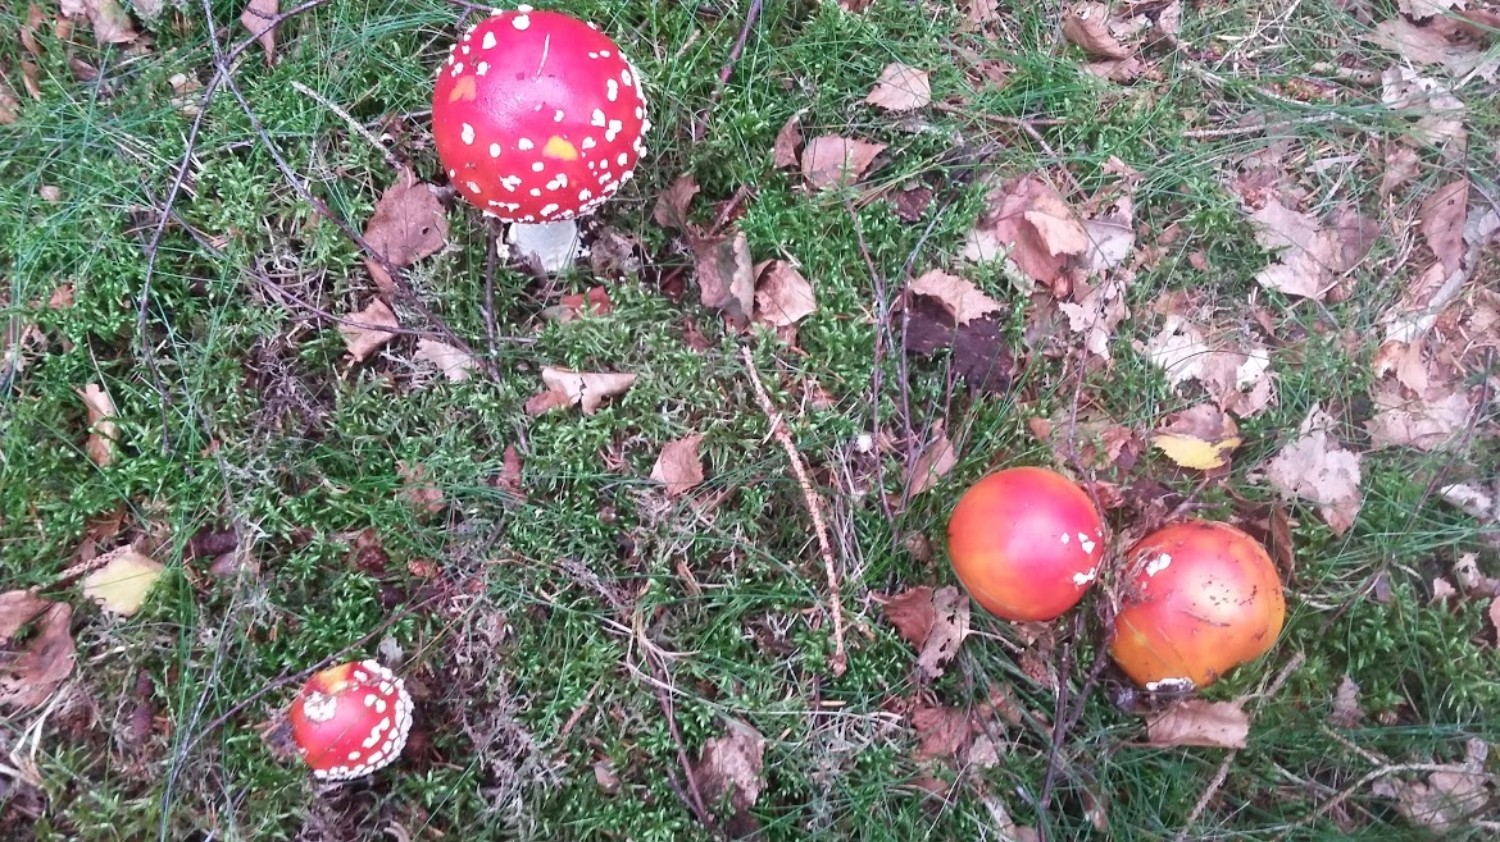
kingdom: Fungi
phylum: Basidiomycota
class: Agaricomycetes
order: Agaricales
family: Amanitaceae
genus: Amanita
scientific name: Amanita muscaria
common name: rød fluesvamp
